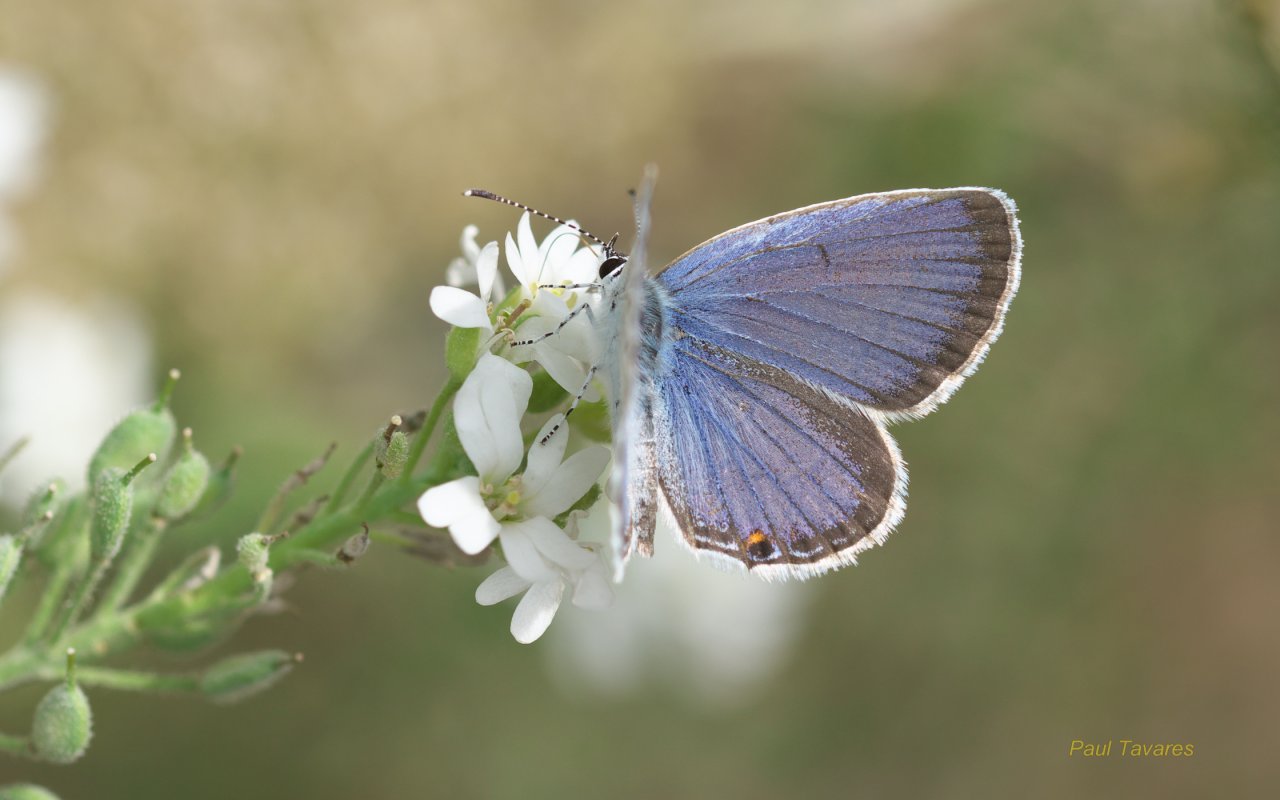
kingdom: Animalia
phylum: Arthropoda
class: Insecta
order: Lepidoptera
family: Lycaenidae
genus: Elkalyce
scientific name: Elkalyce comyntas
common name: Eastern Tailed-Blue
